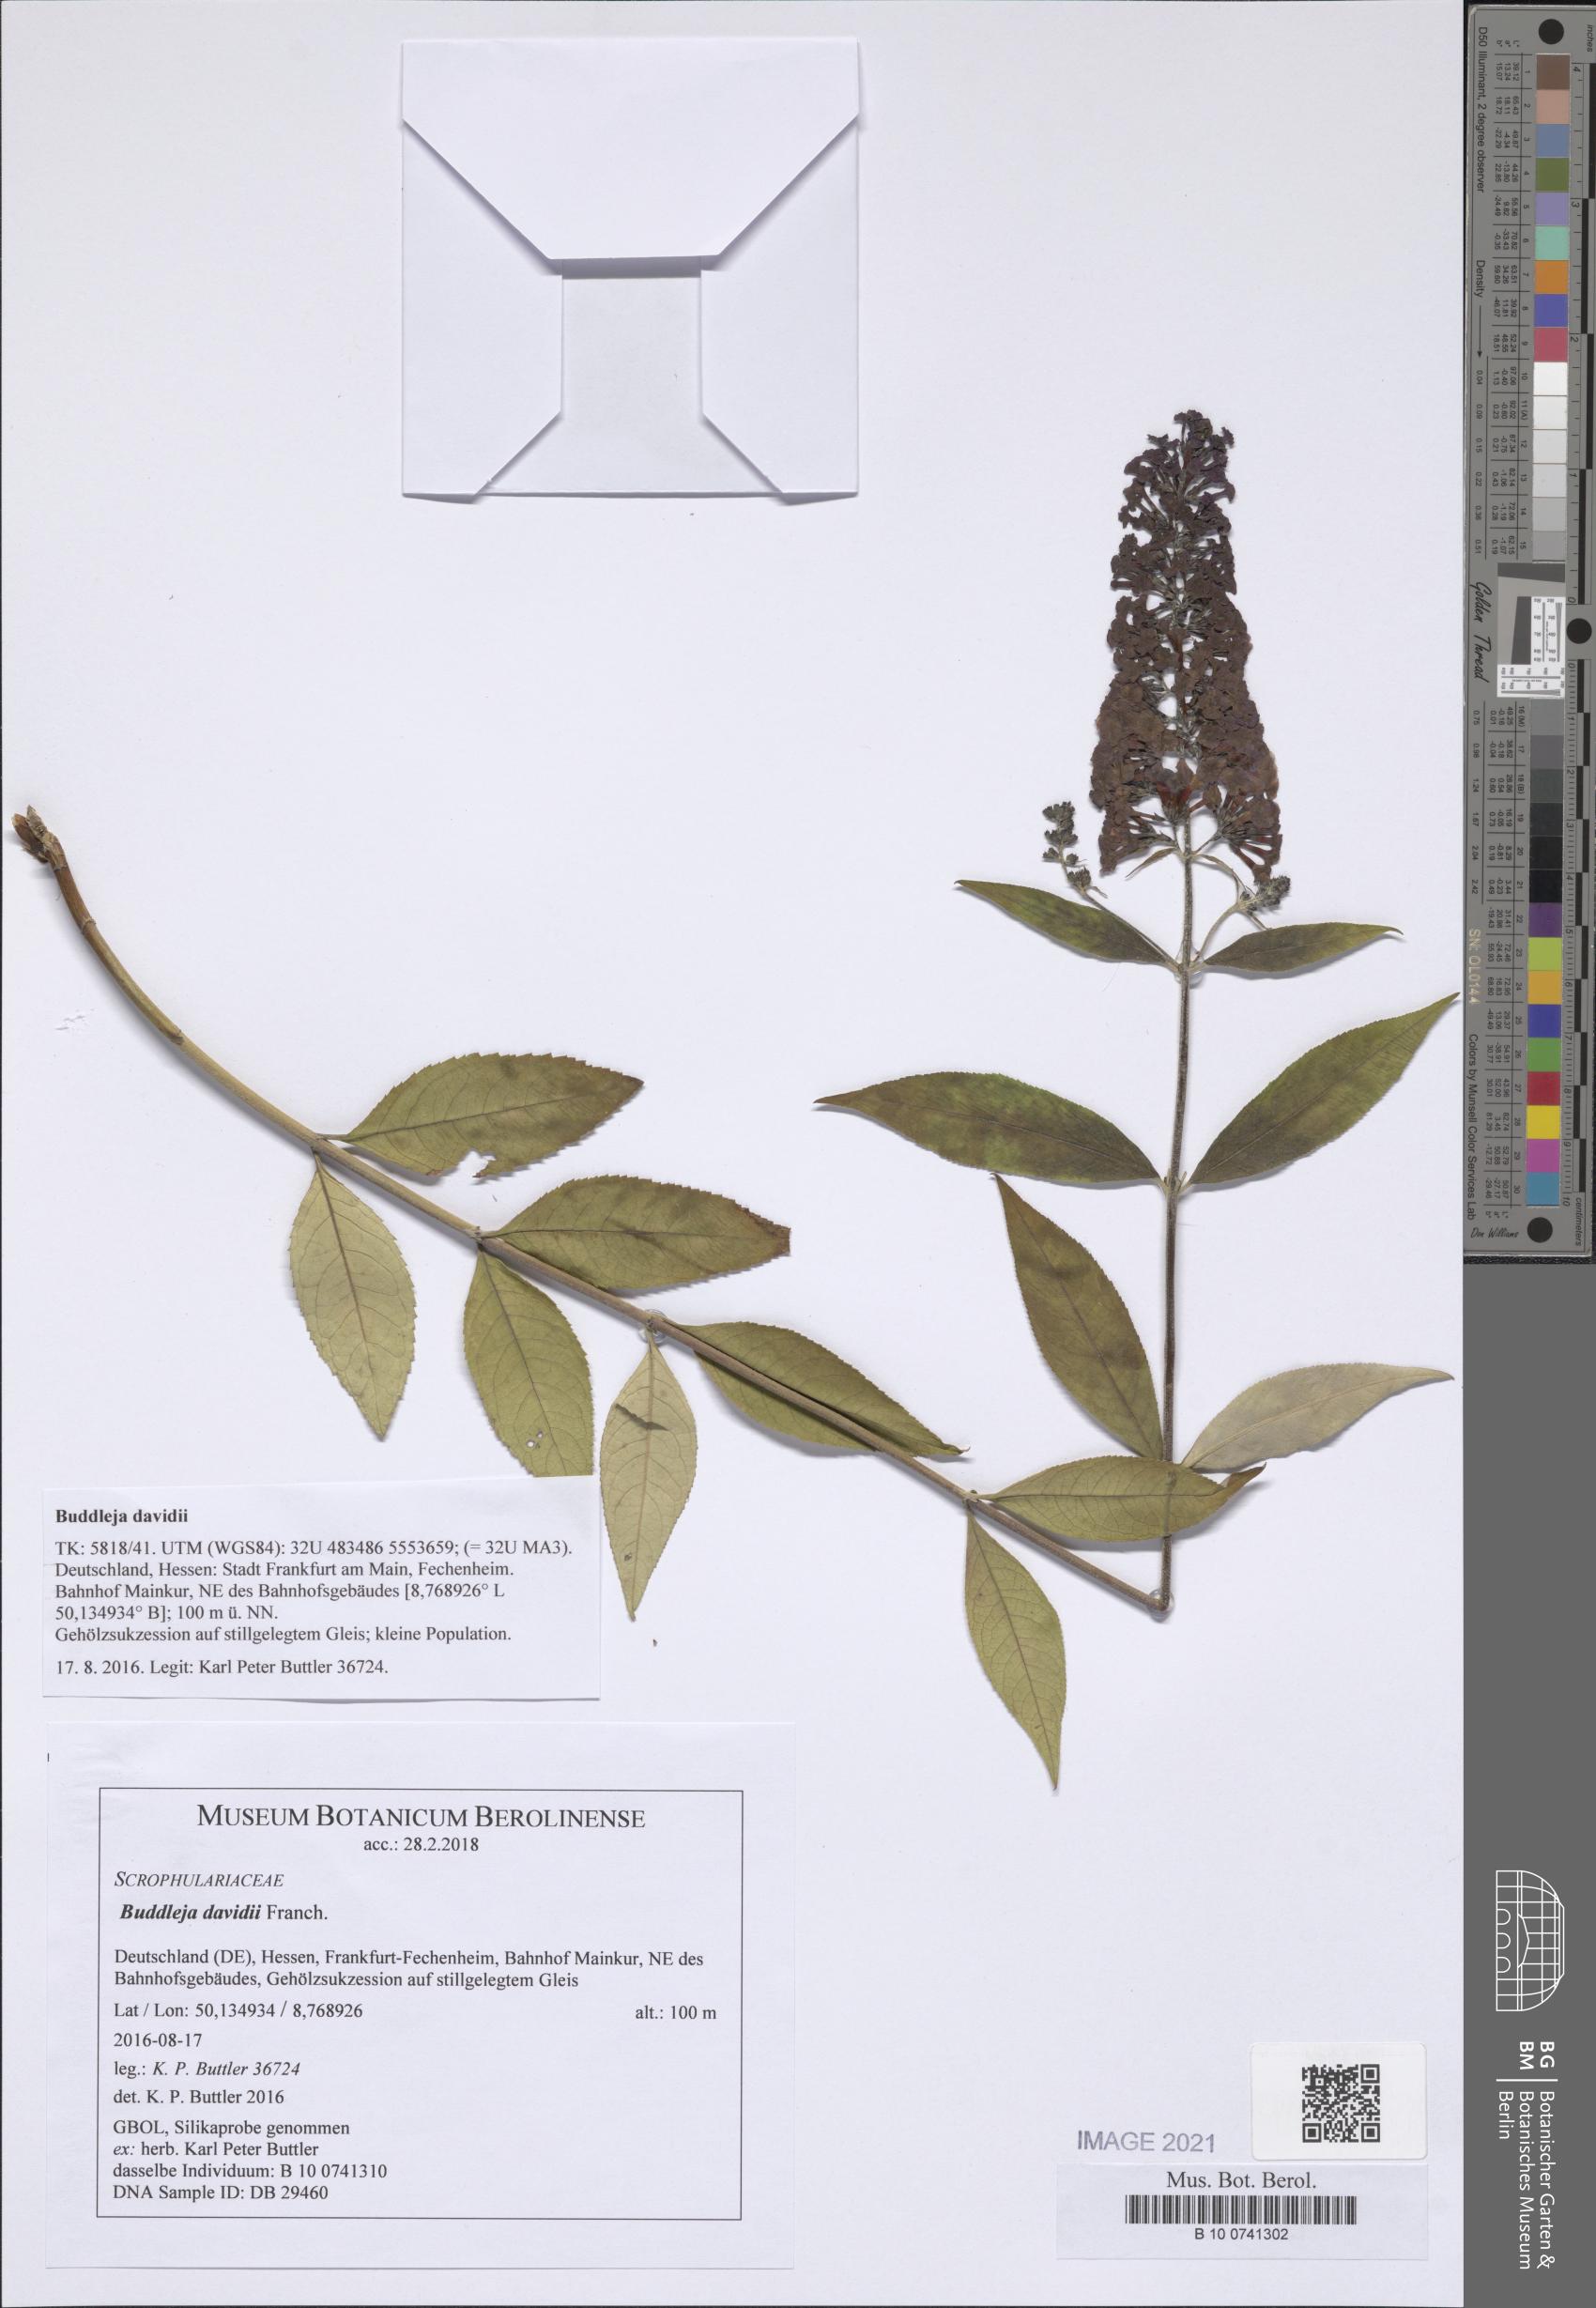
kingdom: Plantae
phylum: Tracheophyta
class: Magnoliopsida
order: Lamiales
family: Scrophulariaceae
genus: Buddleja
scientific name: Buddleja davidii
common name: Butterfly-bush
